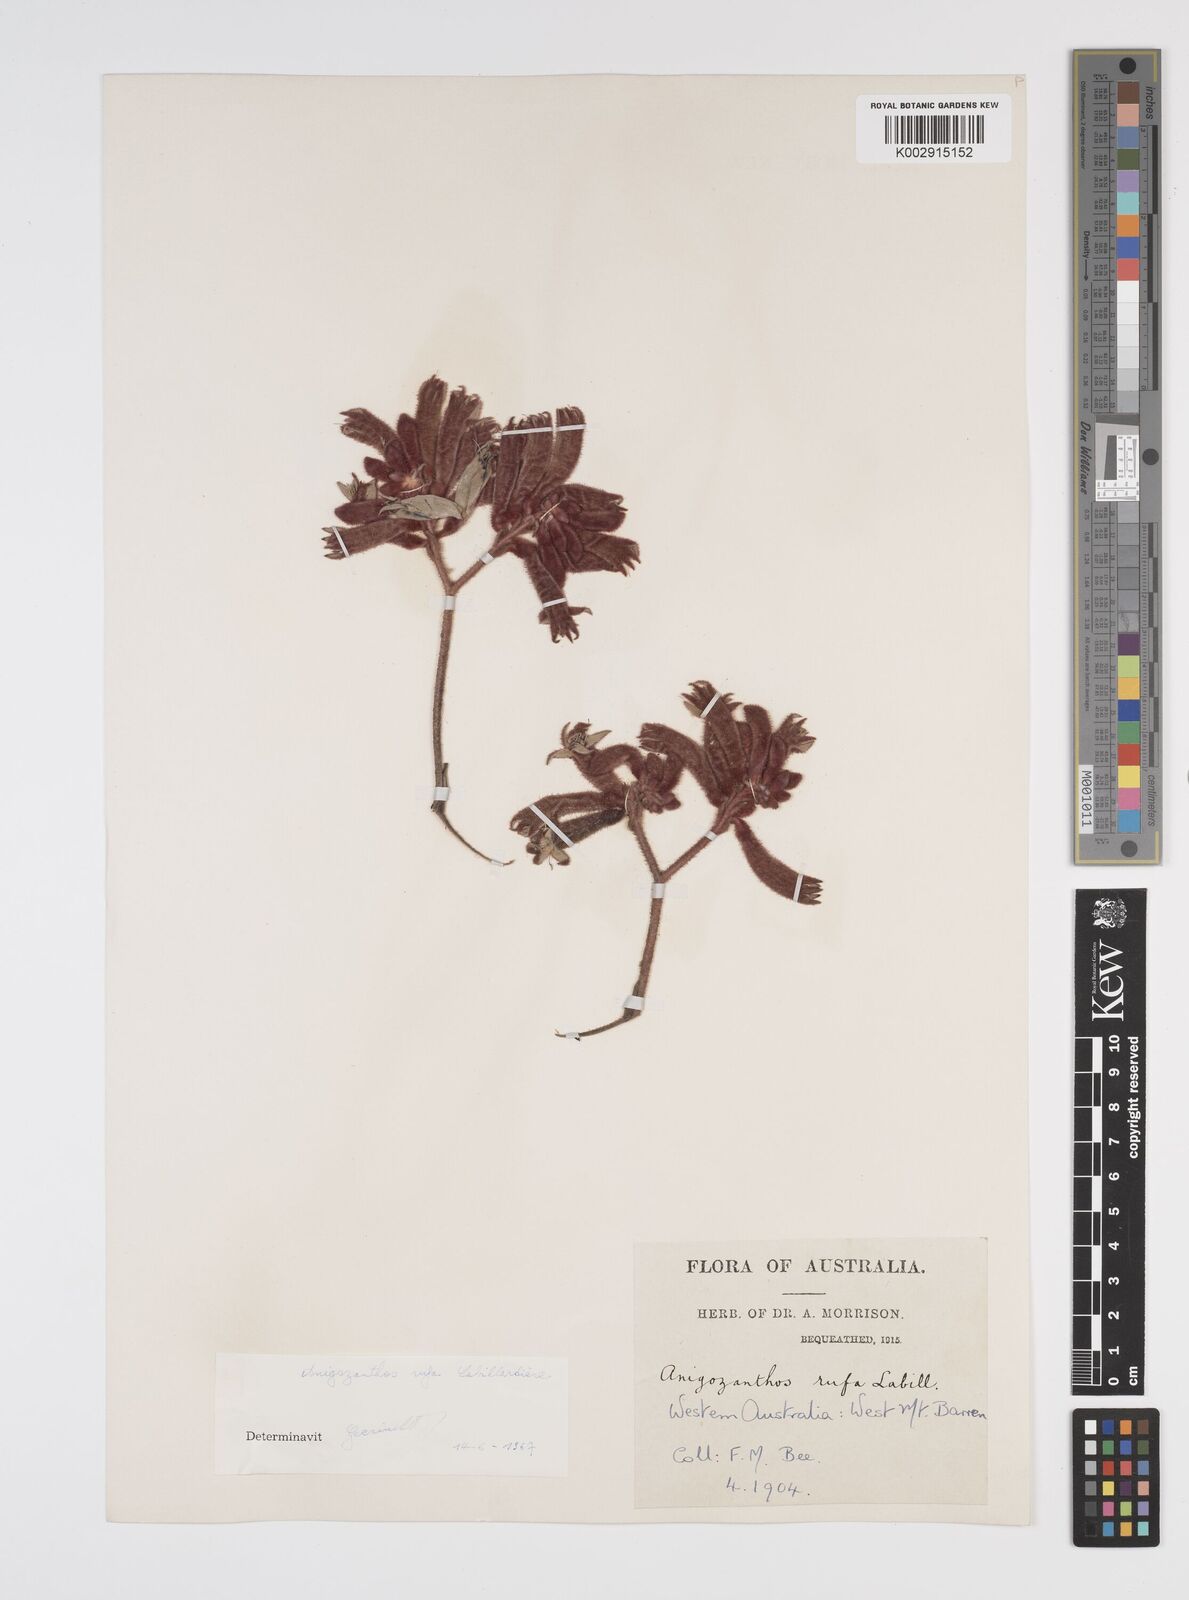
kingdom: Plantae
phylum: Tracheophyta
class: Liliopsida
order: Commelinales
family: Haemodoraceae
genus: Anigozanthos
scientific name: Anigozanthos rufus
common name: Red kangaroo-paw
